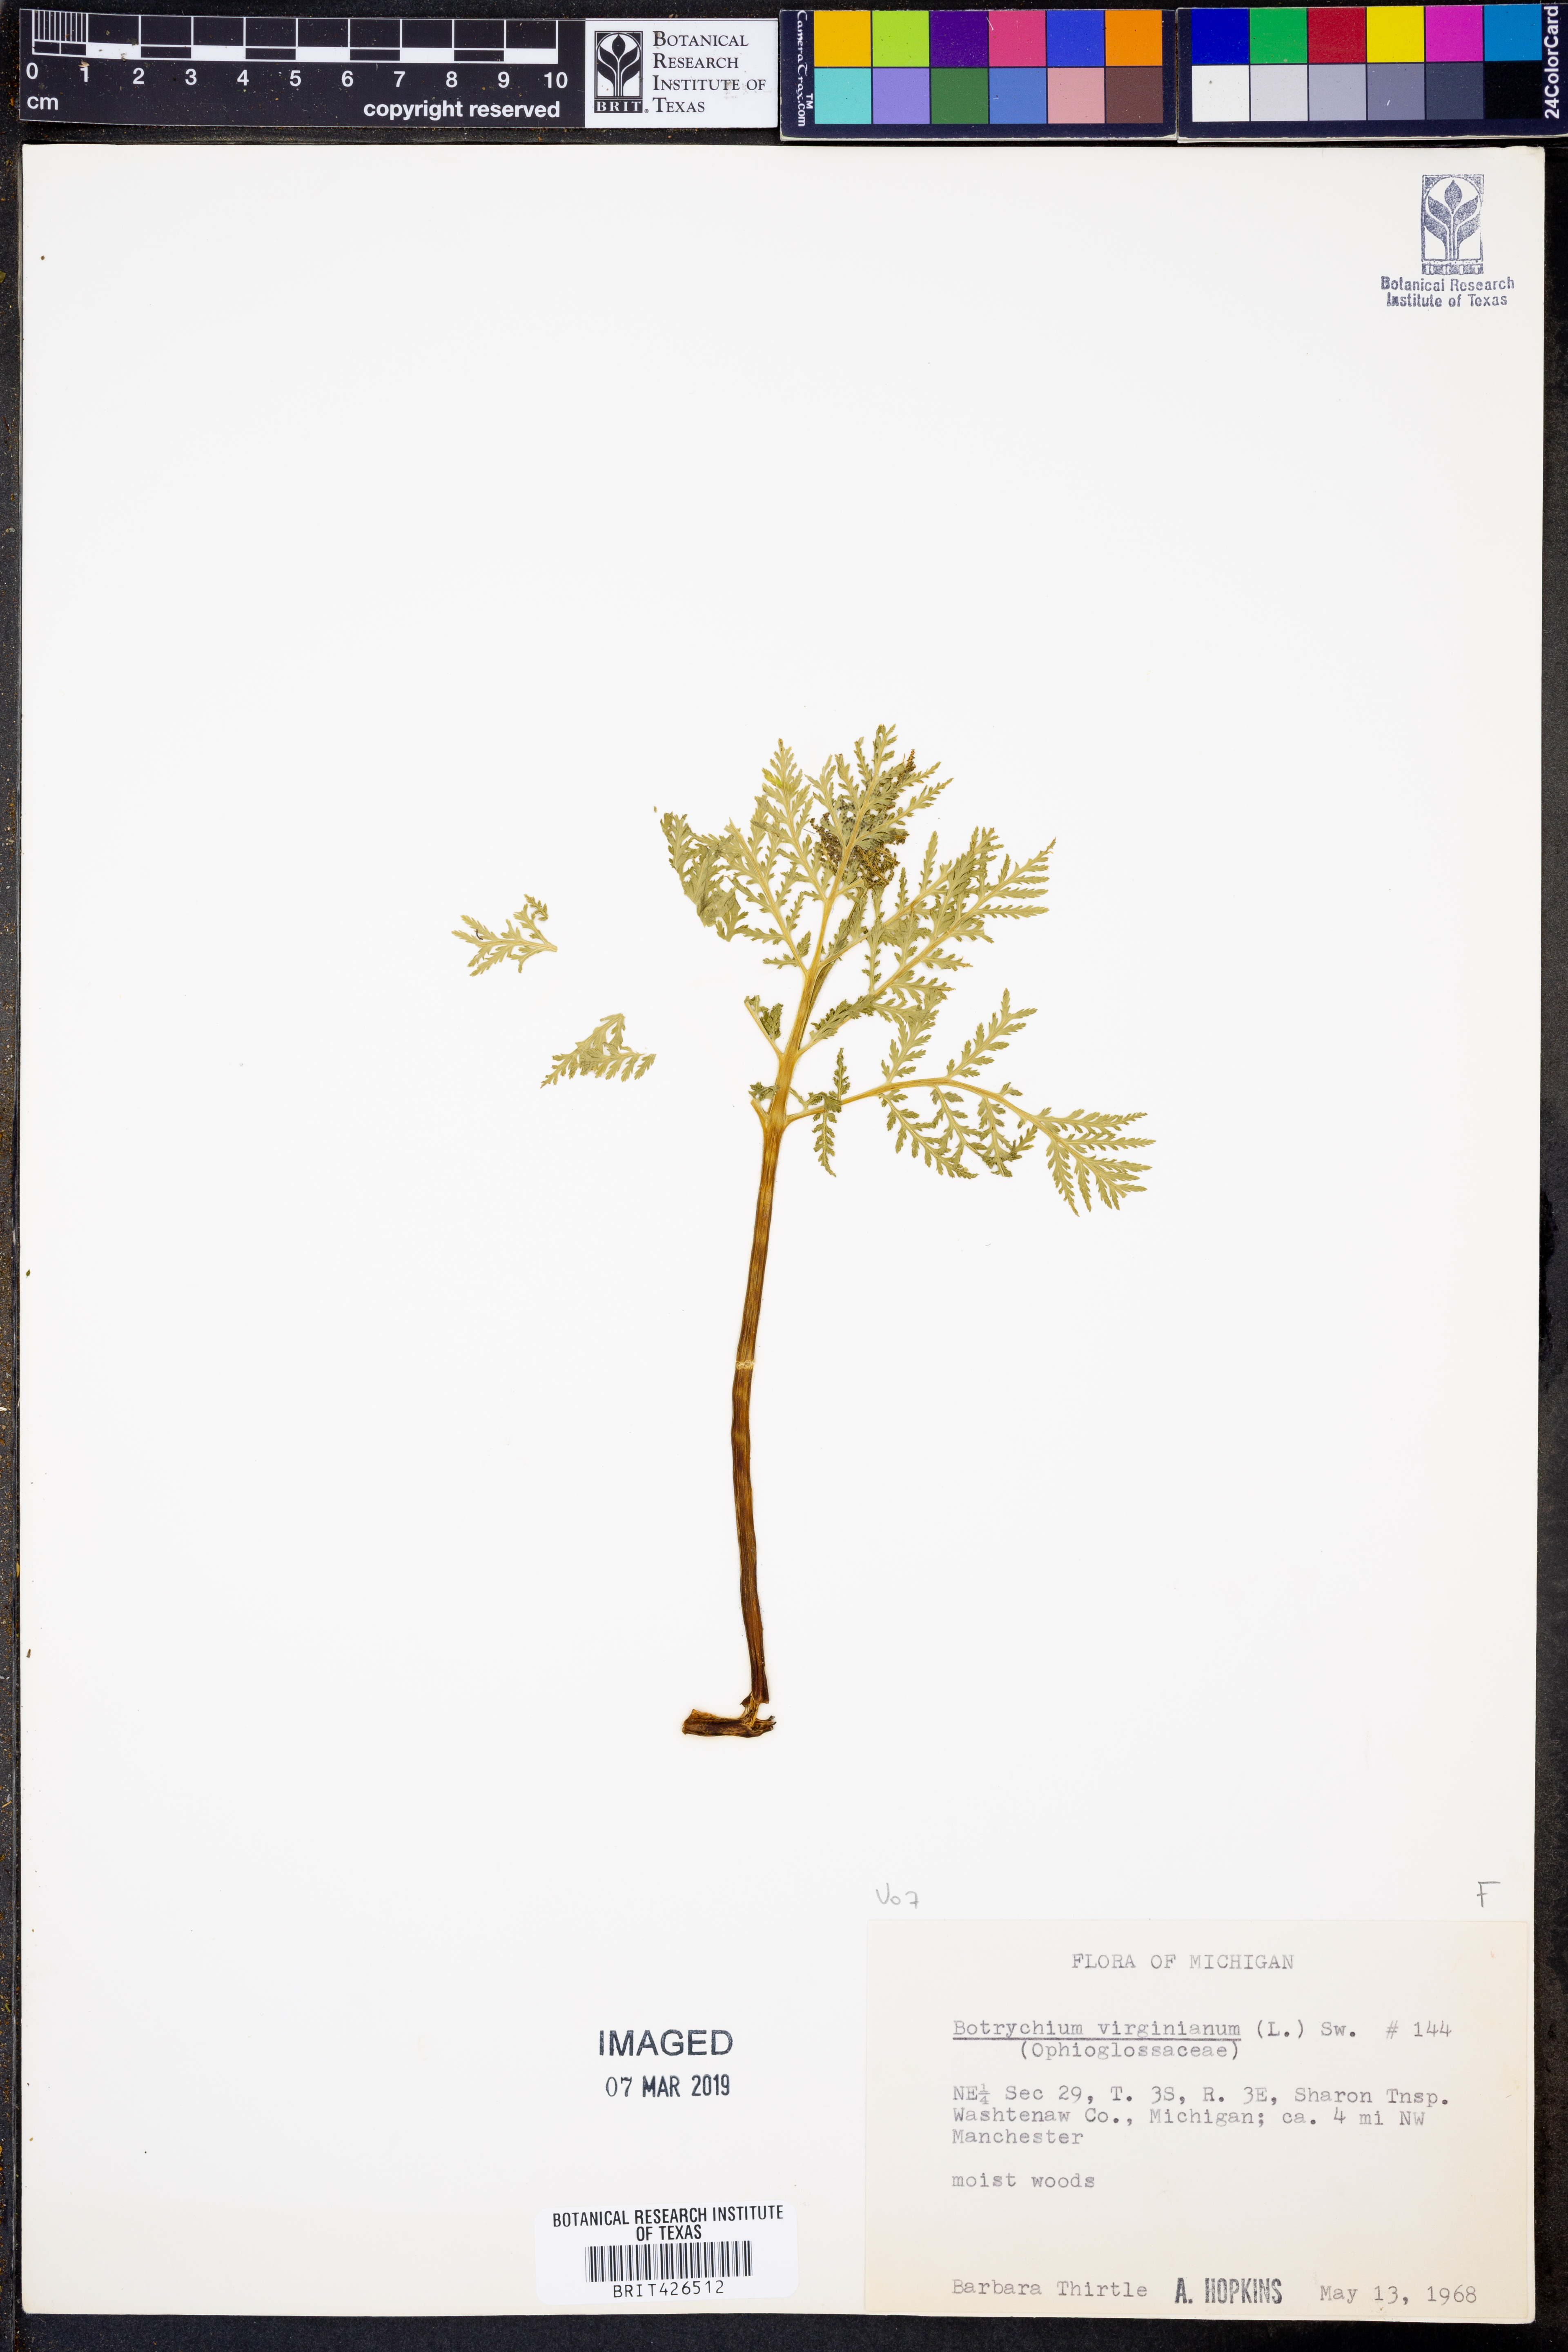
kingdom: Plantae
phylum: Tracheophyta
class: Polypodiopsida
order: Ophioglossales
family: Ophioglossaceae
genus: Botrypus
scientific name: Botrypus virginianus
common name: Common grapefern
